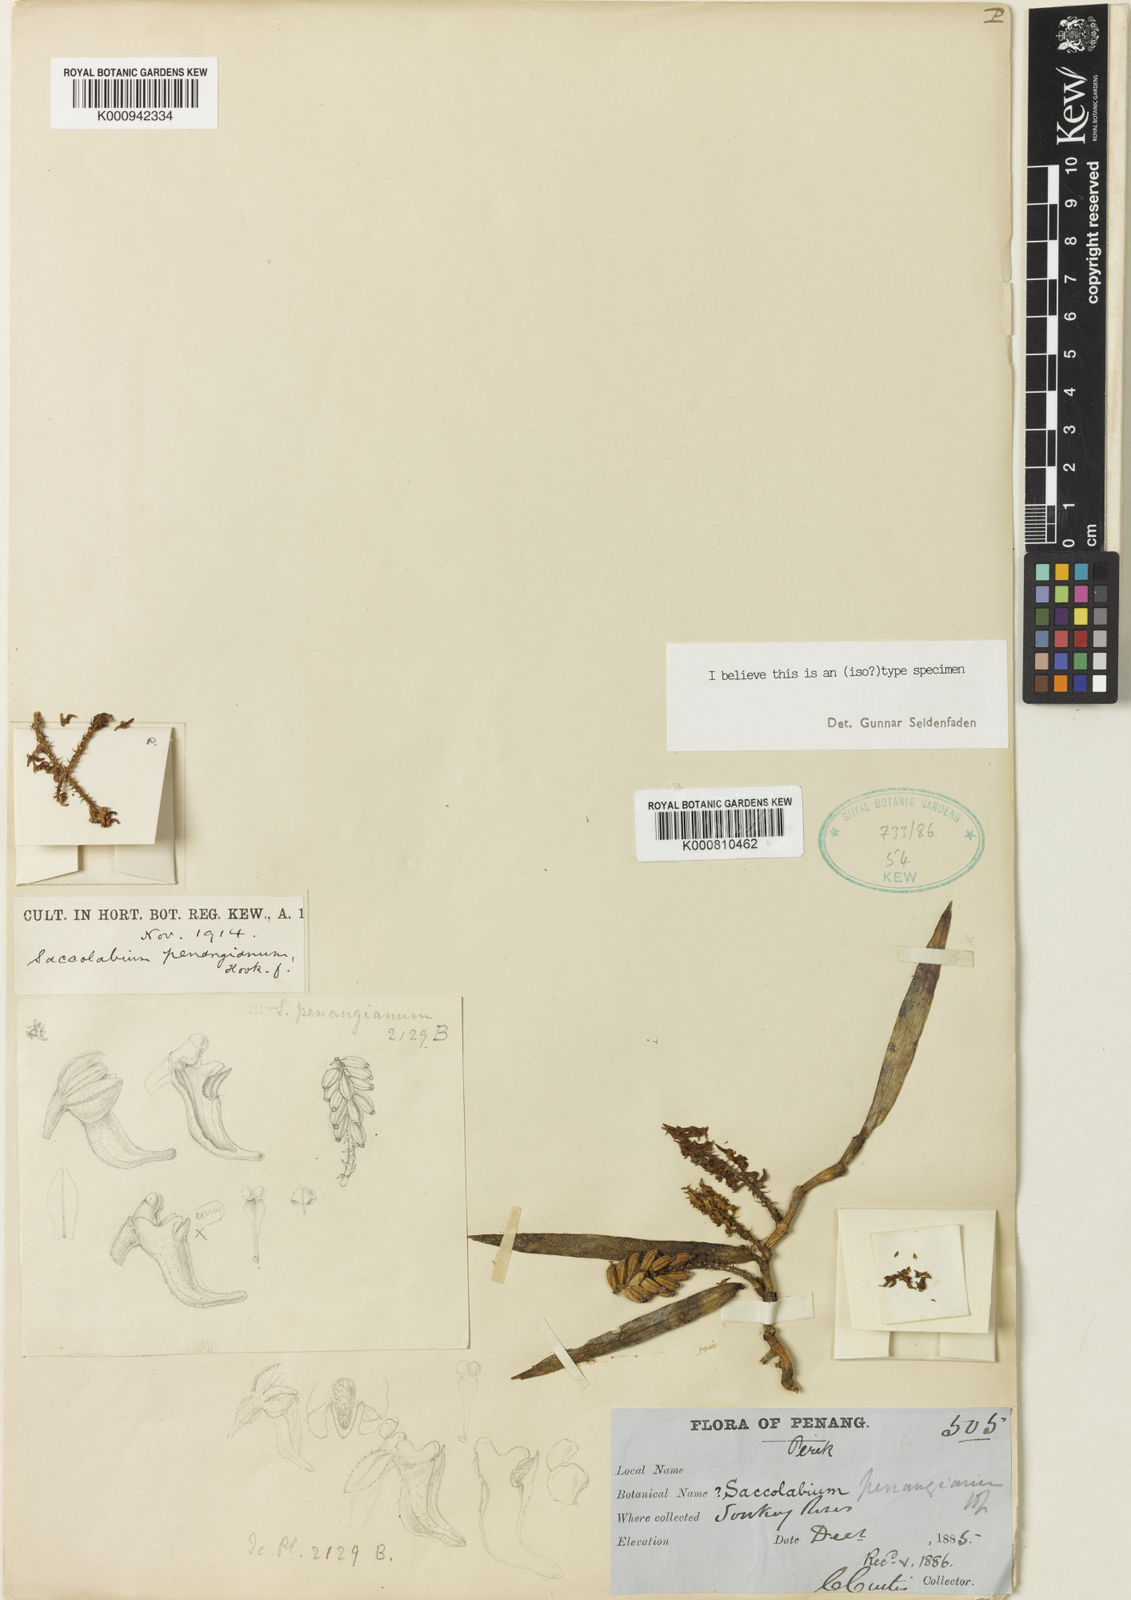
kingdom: Plantae
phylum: Tracheophyta
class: Liliopsida
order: Asparagales
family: Orchidaceae
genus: Robiquetia
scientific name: Robiquetia penangiana
